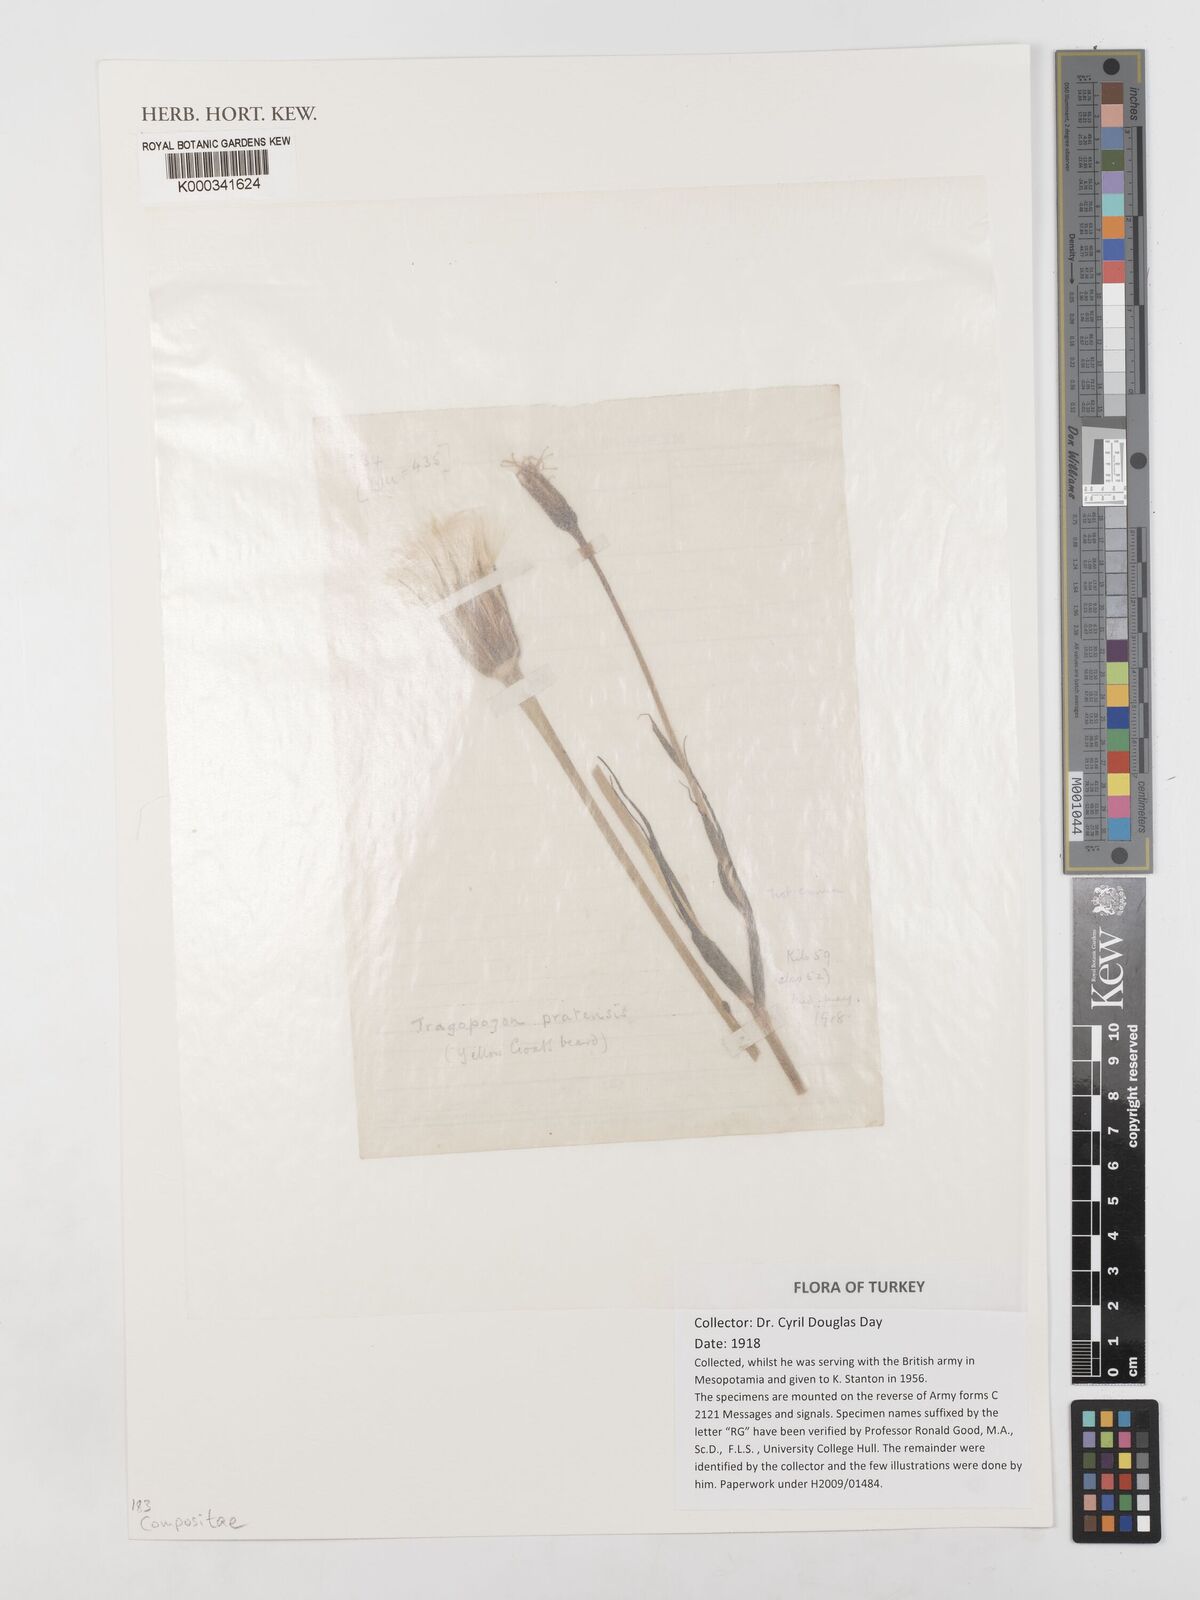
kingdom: Plantae
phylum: Tracheophyta
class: Magnoliopsida
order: Asterales
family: Asteraceae
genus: Tragopogon
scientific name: Tragopogon pratensis
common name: Goat's-beard
